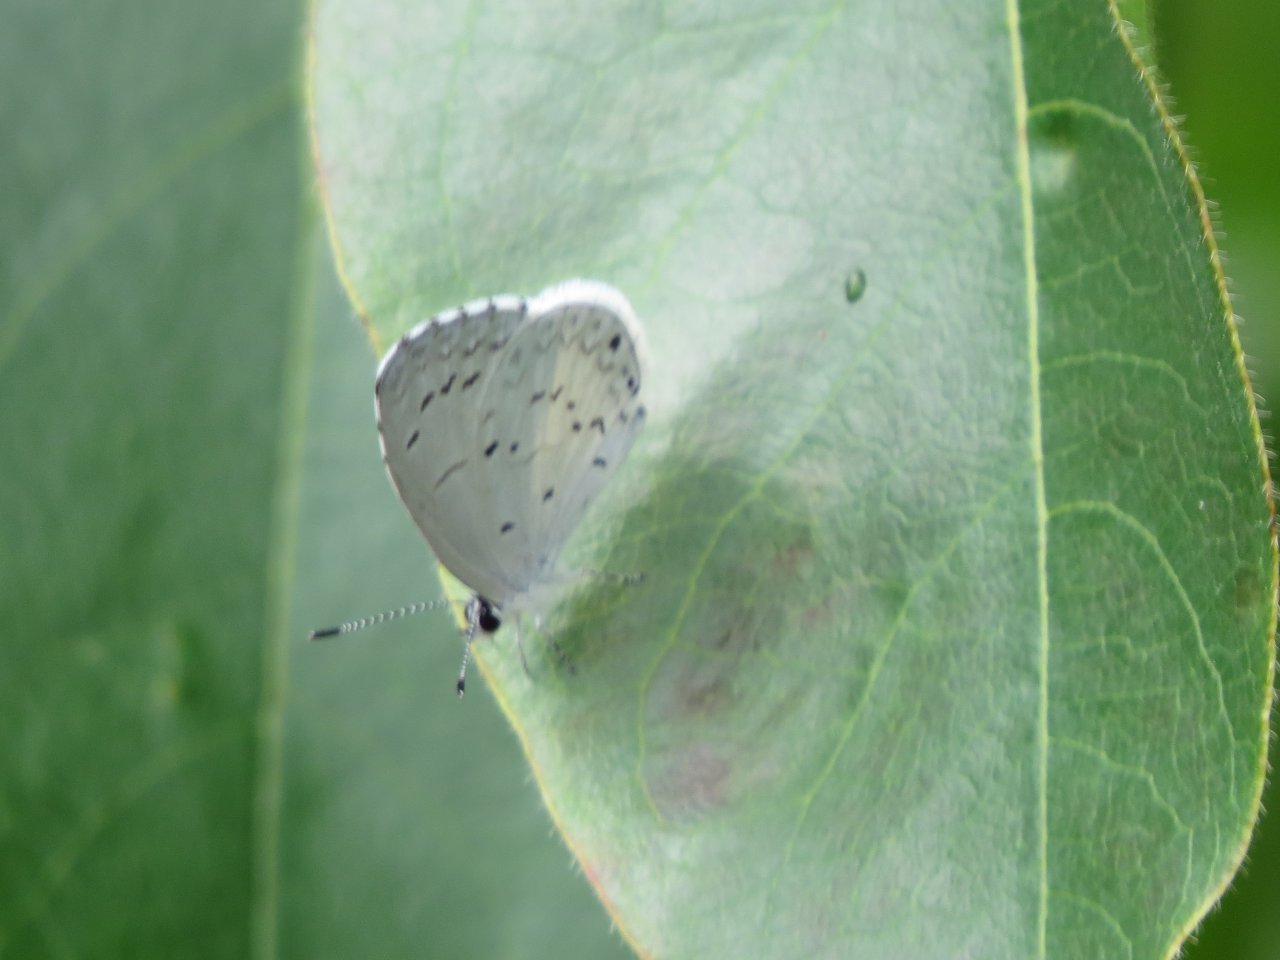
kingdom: Animalia
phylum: Arthropoda
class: Insecta
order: Lepidoptera
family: Lycaenidae
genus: Cyaniris
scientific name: Cyaniris neglecta
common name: Summer Azure
